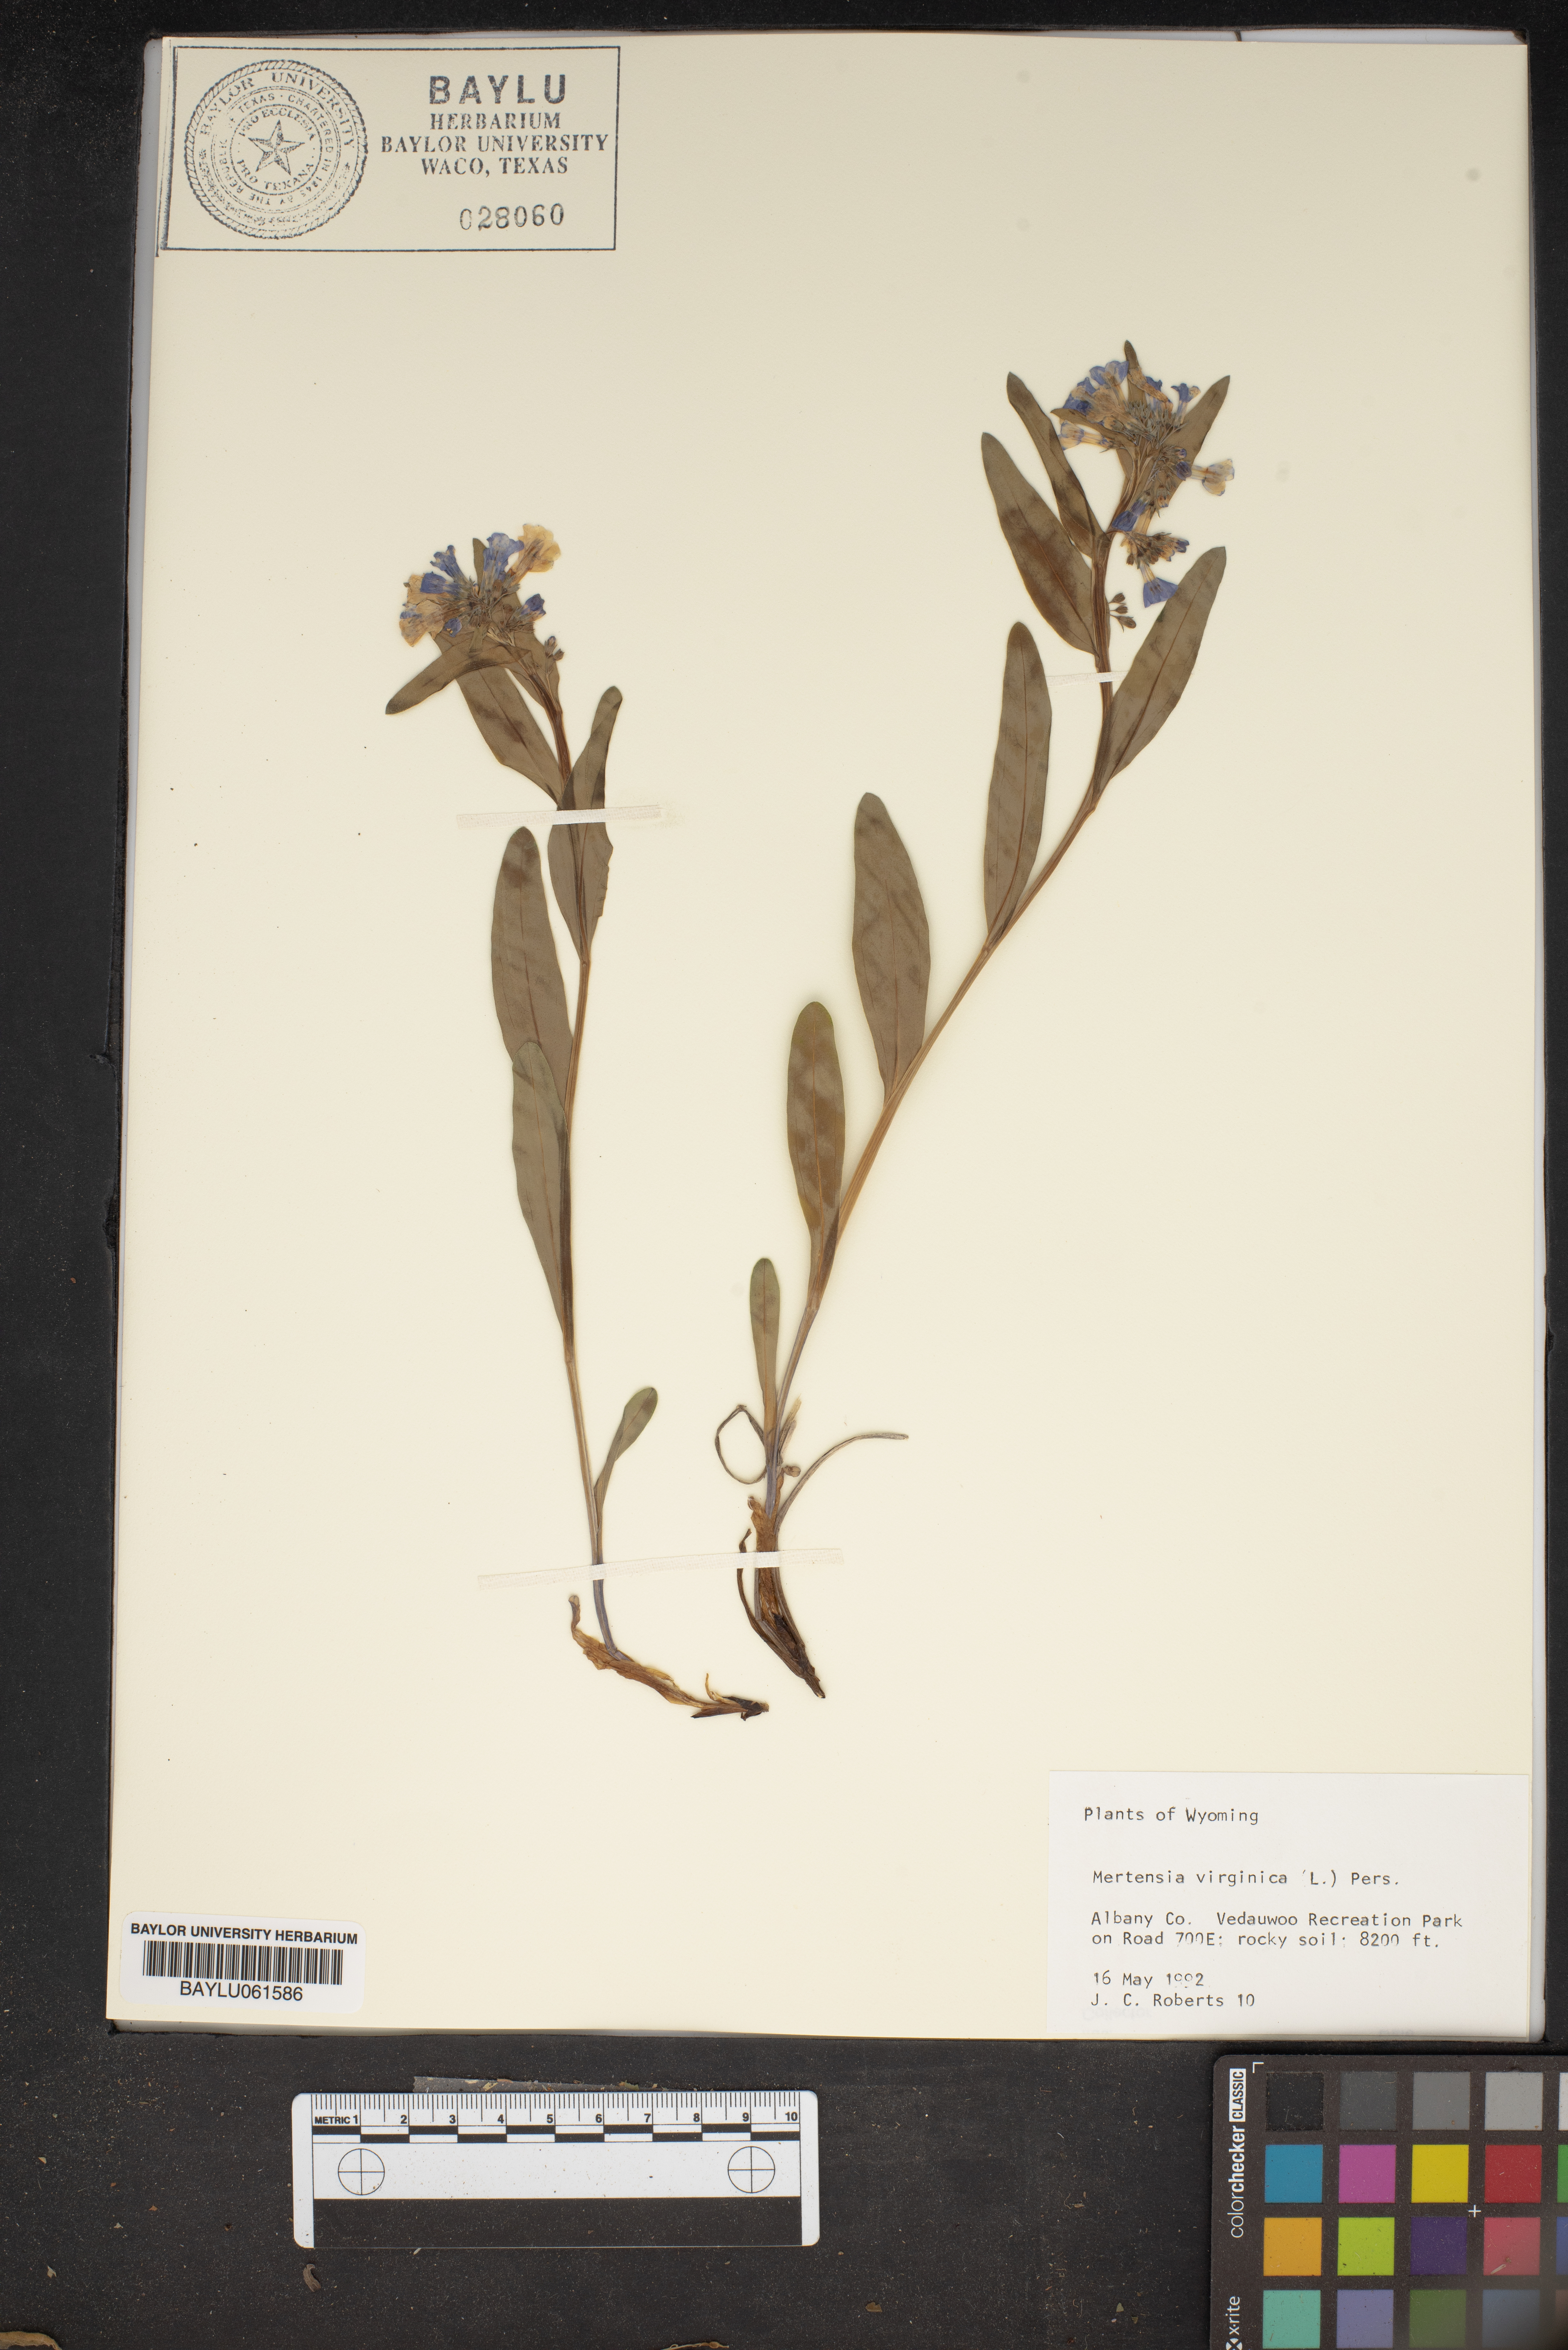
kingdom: Plantae
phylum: Tracheophyta
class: Magnoliopsida
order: Boraginales
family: Boraginaceae
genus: Mertensia
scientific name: Mertensia virginica
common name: Virginia bluebells
